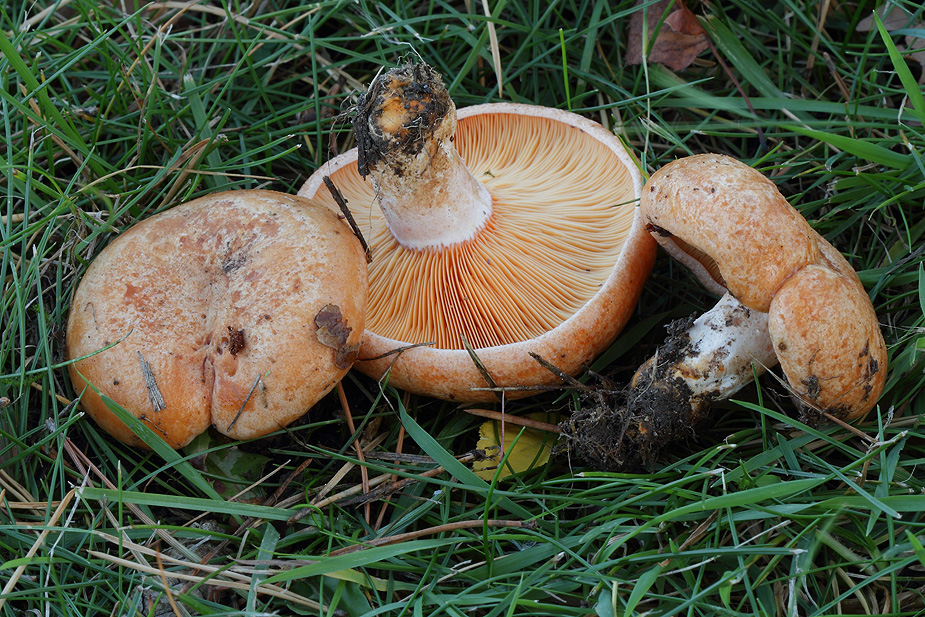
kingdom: Fungi
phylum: Basidiomycota
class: Agaricomycetes
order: Russulales
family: Russulaceae
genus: Lactarius
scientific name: Lactarius deliciosus
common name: velsmagende mælkehat
